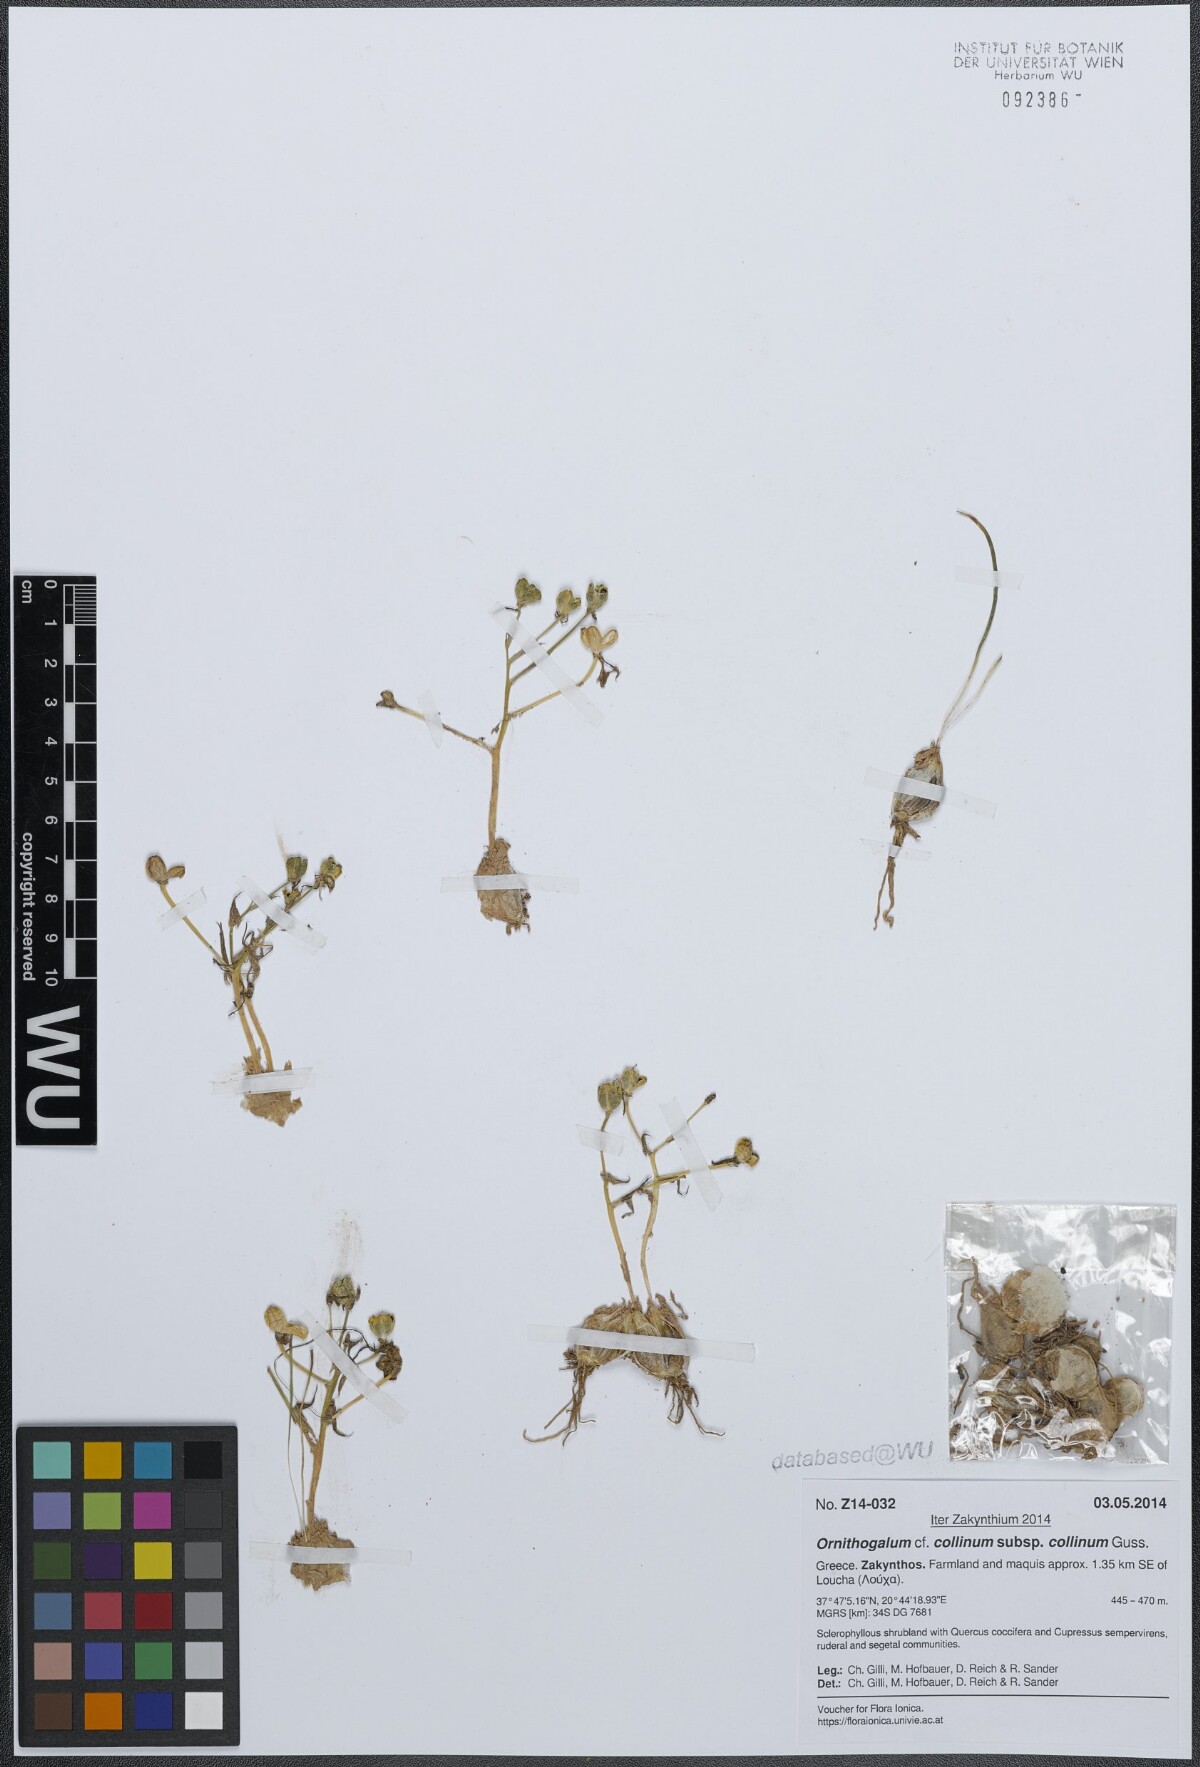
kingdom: Plantae
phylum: Tracheophyta
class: Liliopsida
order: Asparagales
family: Asparagaceae
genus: Ornithogalum
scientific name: Ornithogalum collinum
